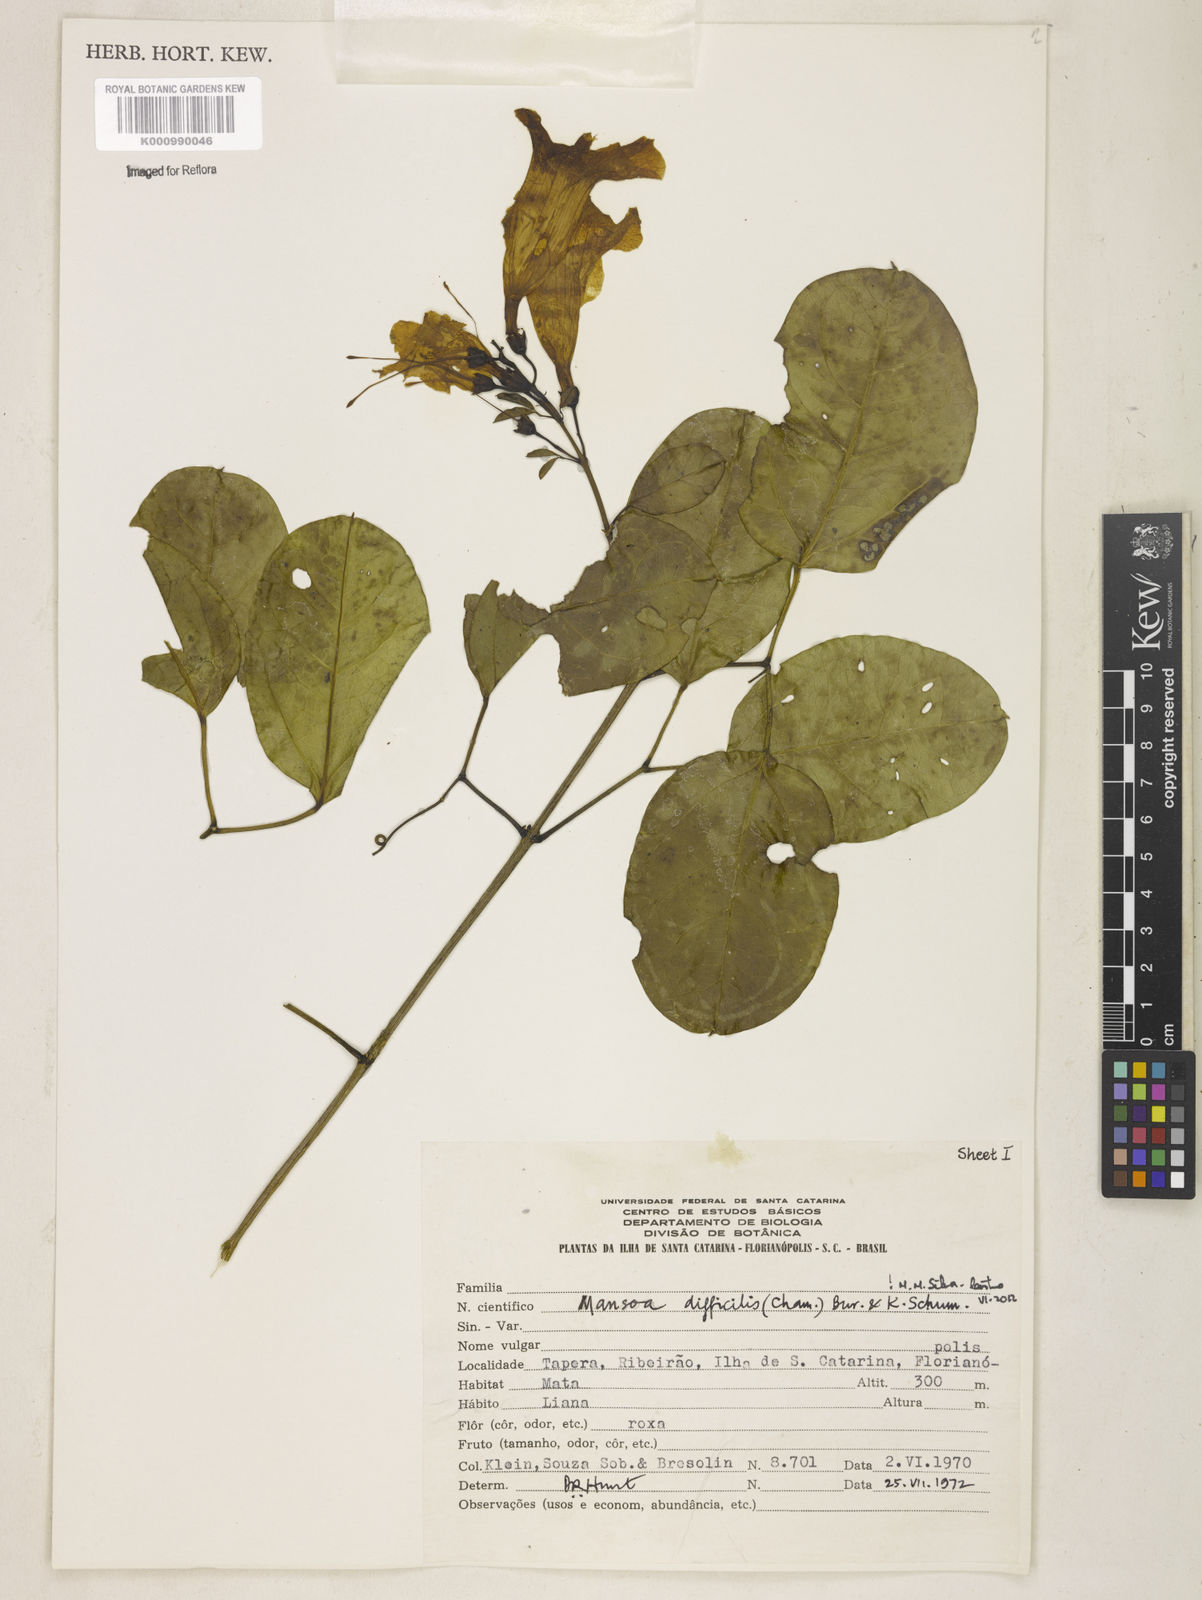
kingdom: Plantae
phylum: Tracheophyta
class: Magnoliopsida
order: Lamiales
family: Bignoniaceae
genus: Mansoa
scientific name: Mansoa difficilis
